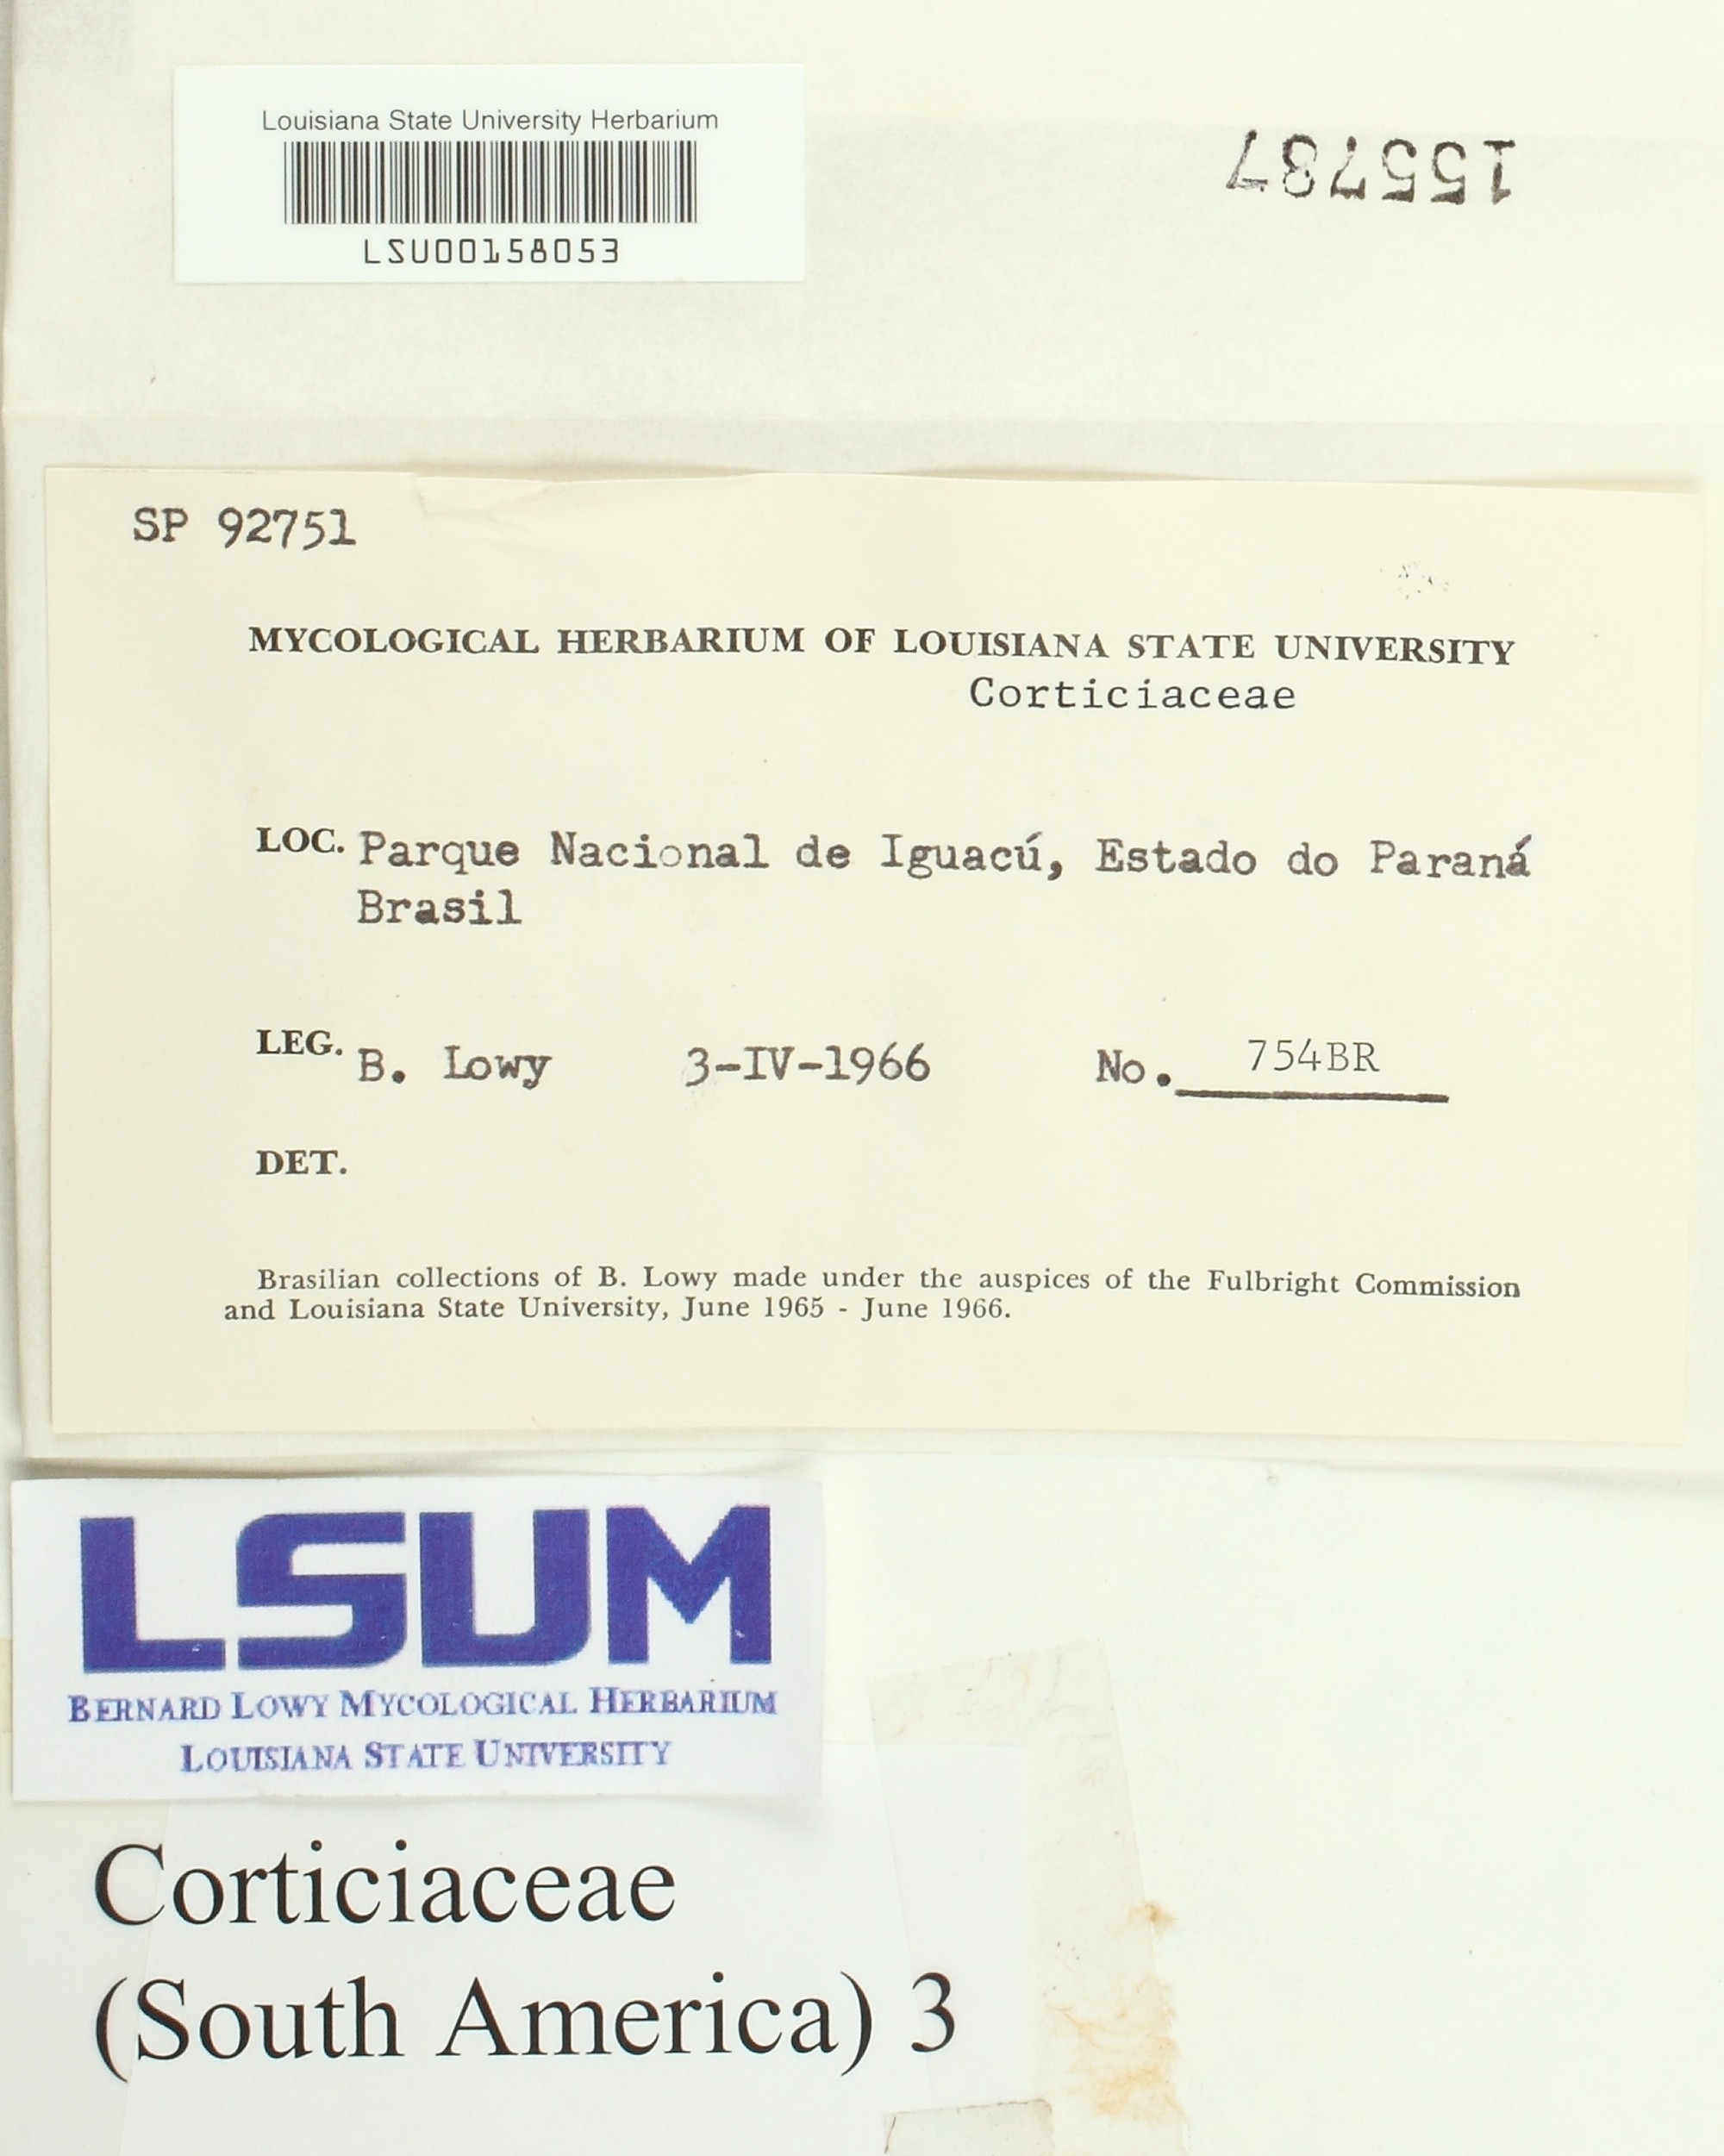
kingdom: Fungi
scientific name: Fungi
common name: Fungi
